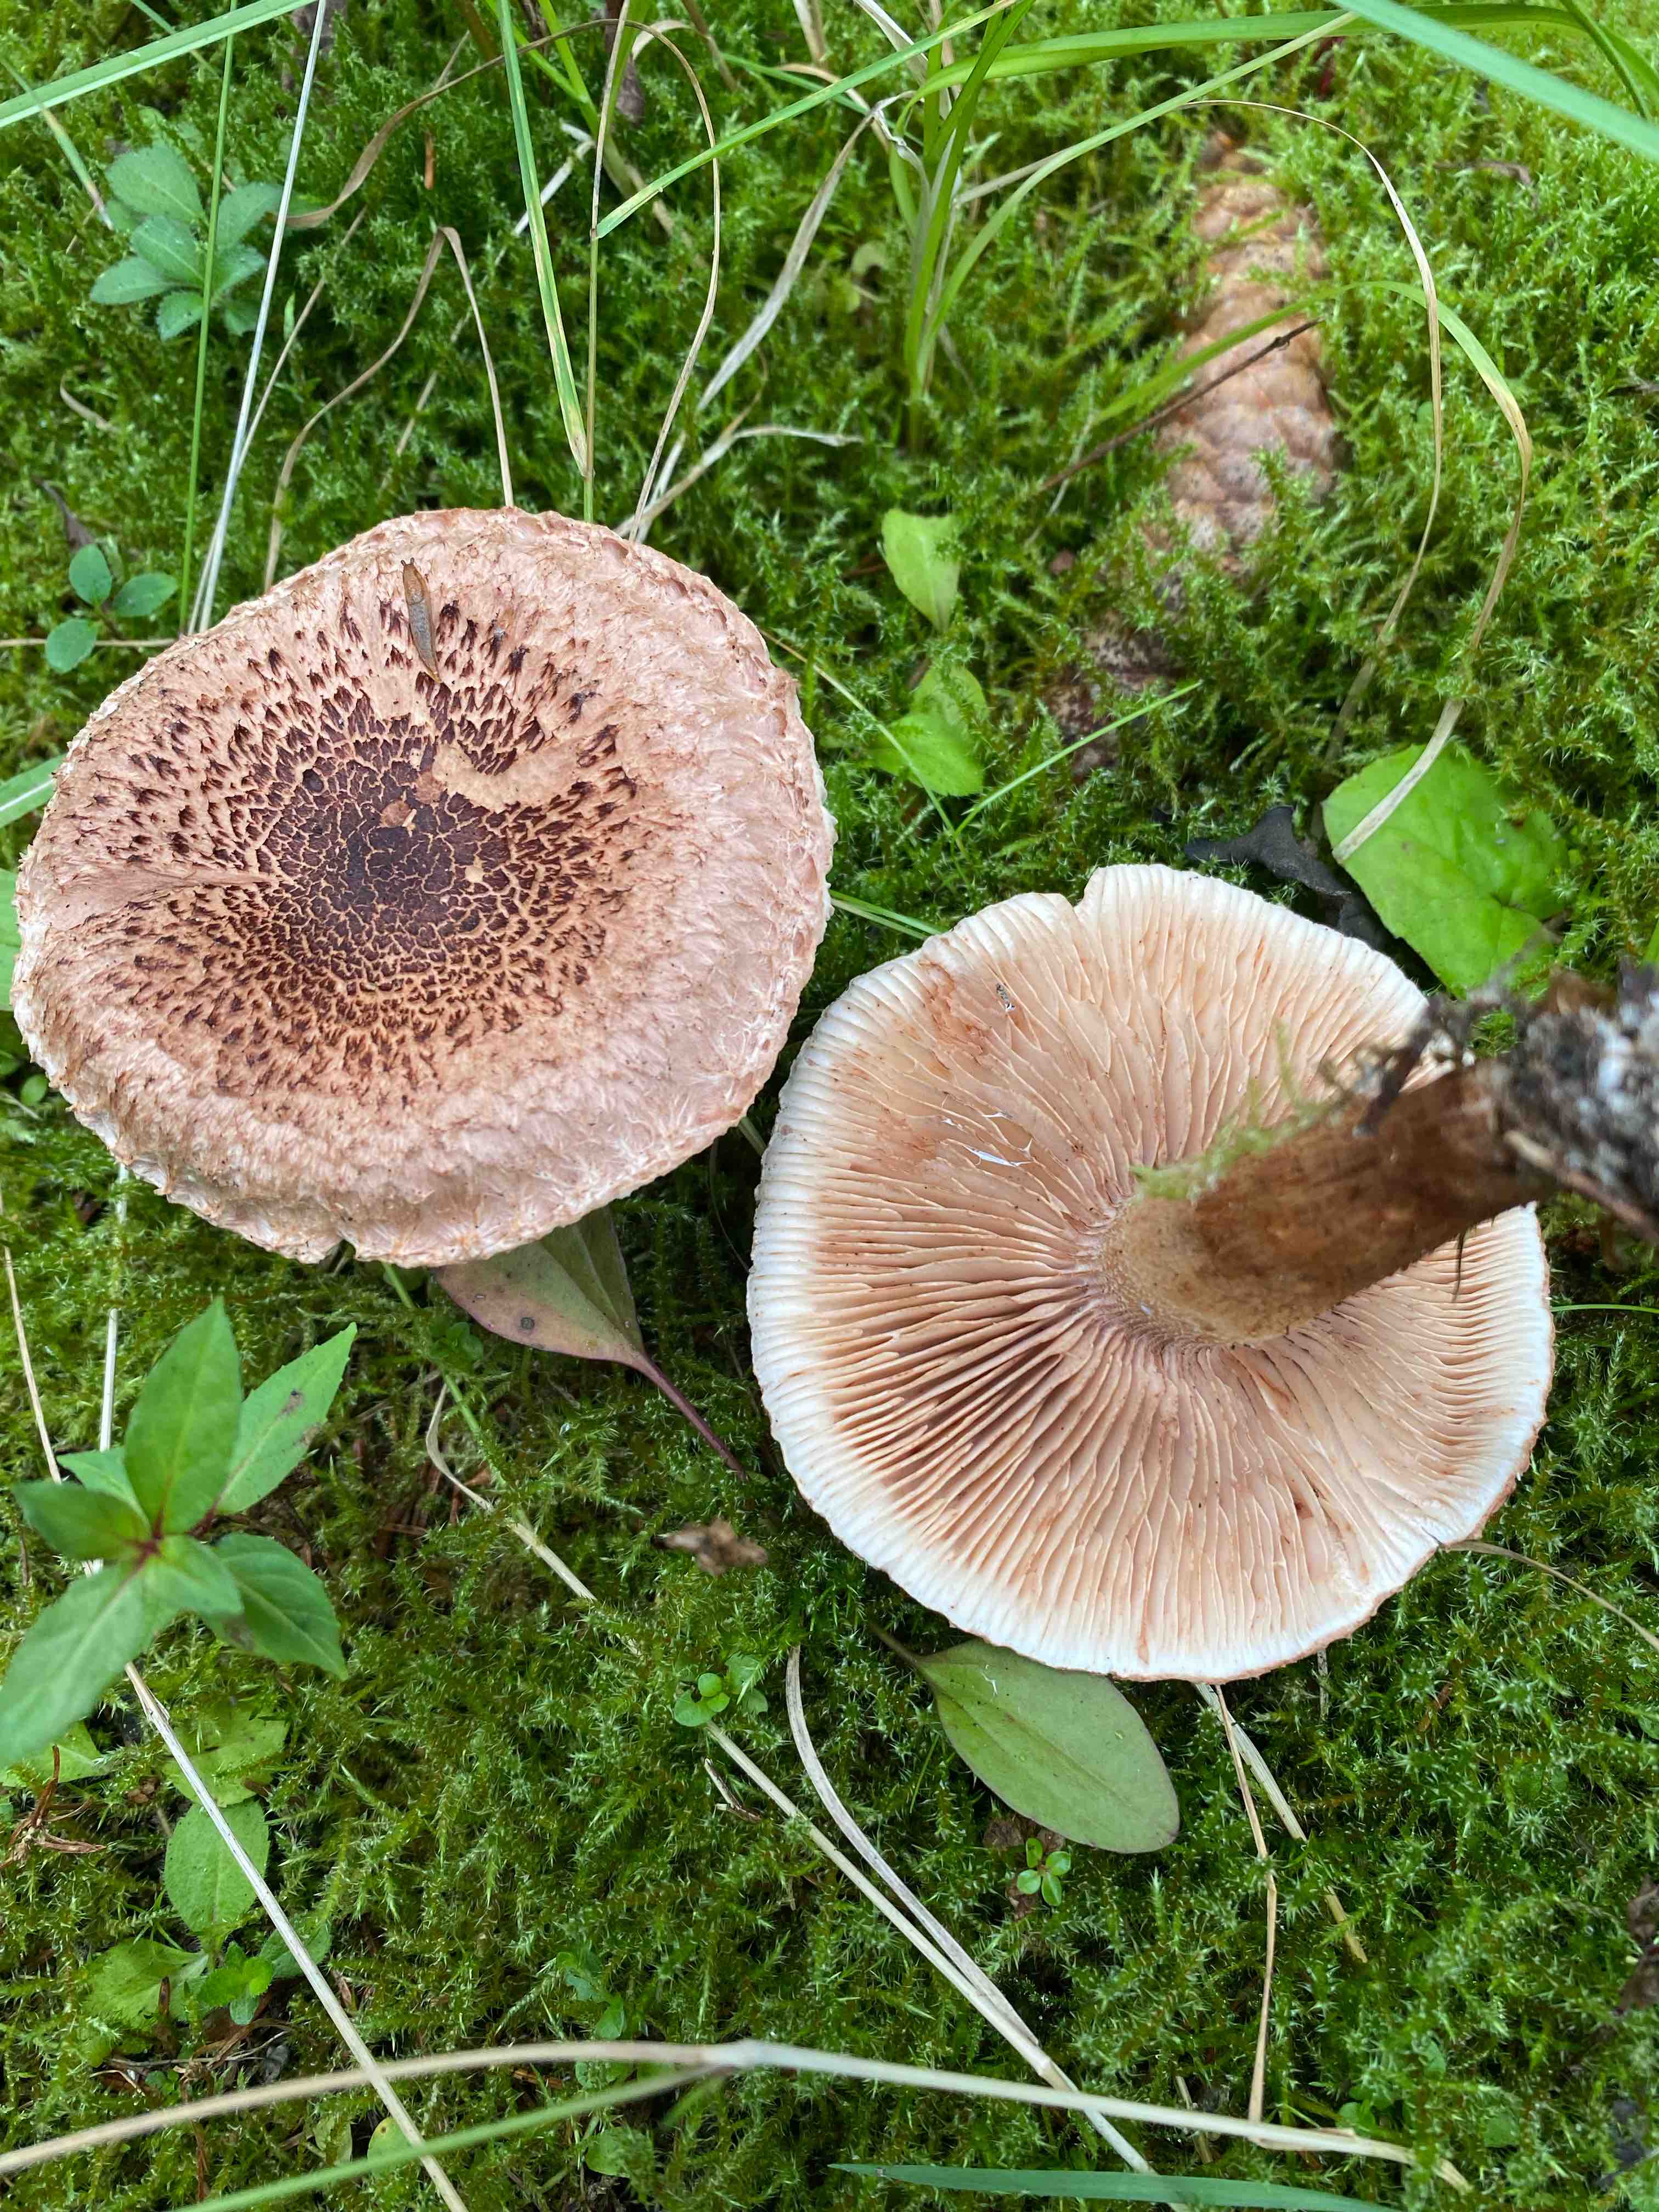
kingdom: Fungi
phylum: Basidiomycota
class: Agaricomycetes
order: Agaricales
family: Tricholomataceae
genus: Tricholoma
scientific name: Tricholoma vaccinum
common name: ko-ridderhat
